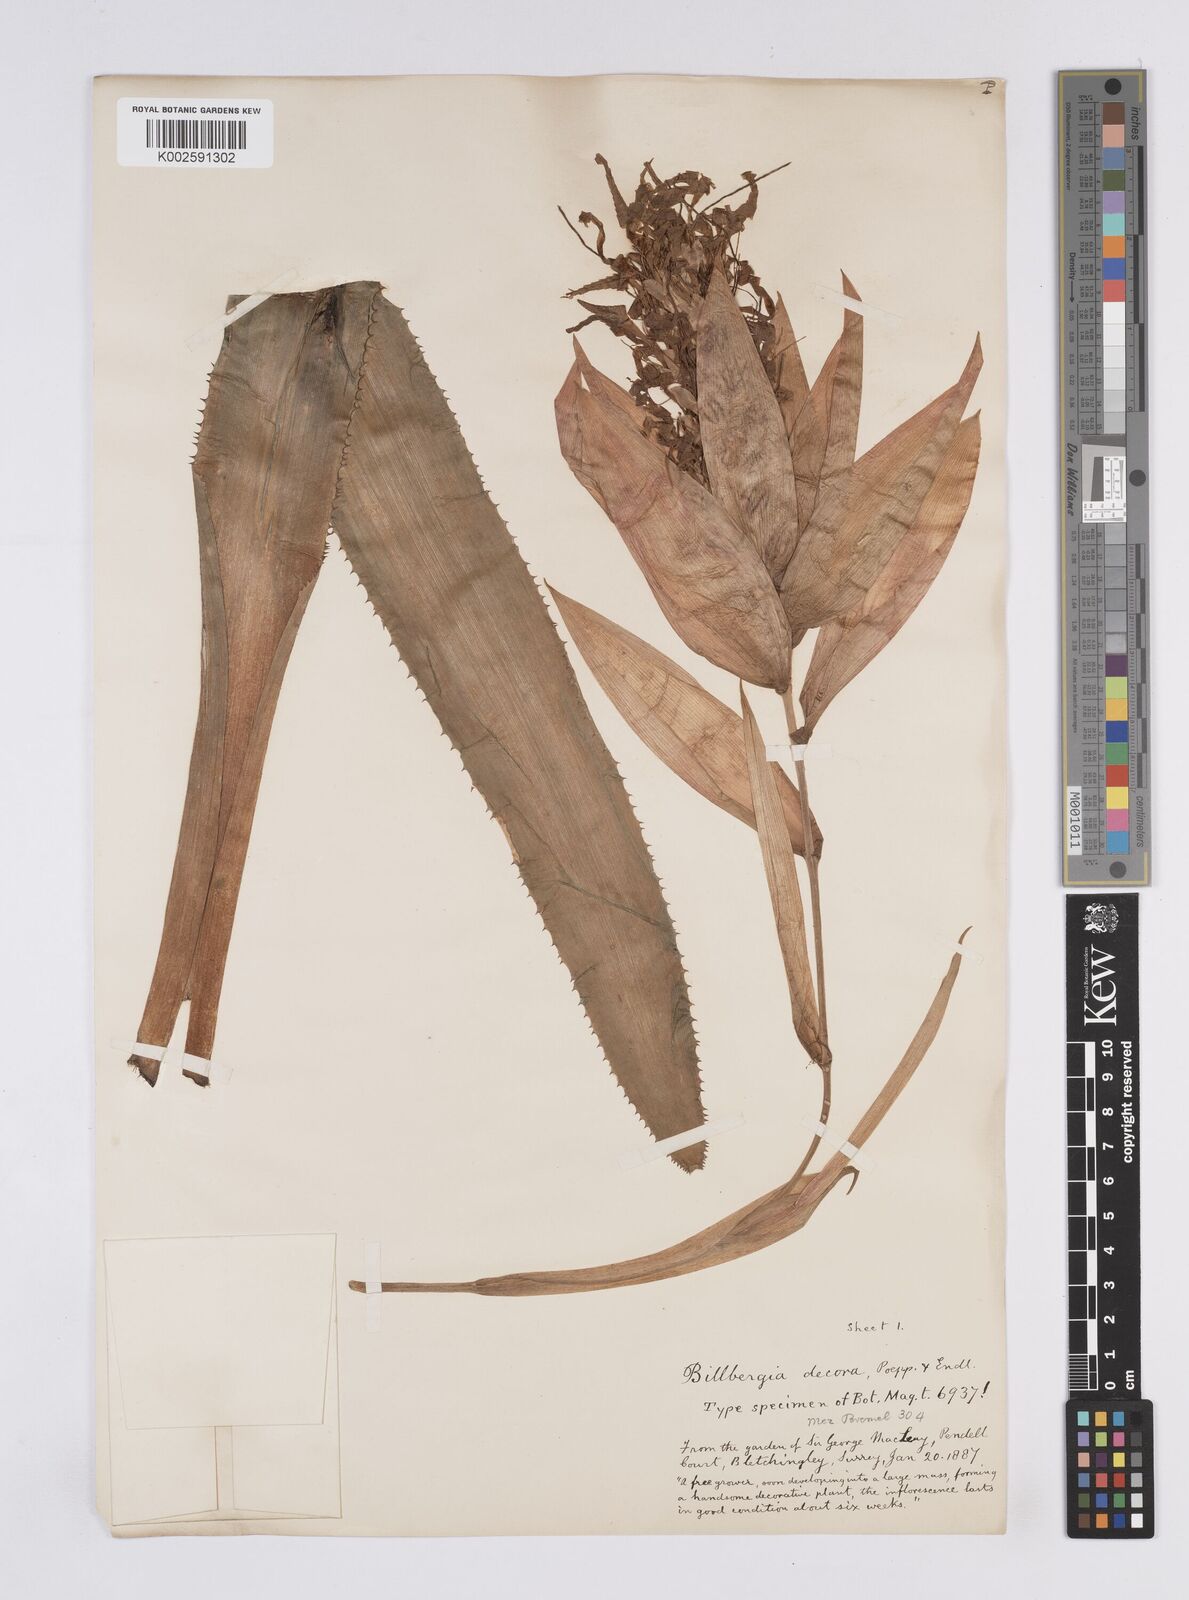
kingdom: Plantae
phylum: Tracheophyta
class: Liliopsida
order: Poales
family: Bromeliaceae
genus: Billbergia
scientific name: Billbergia decora
